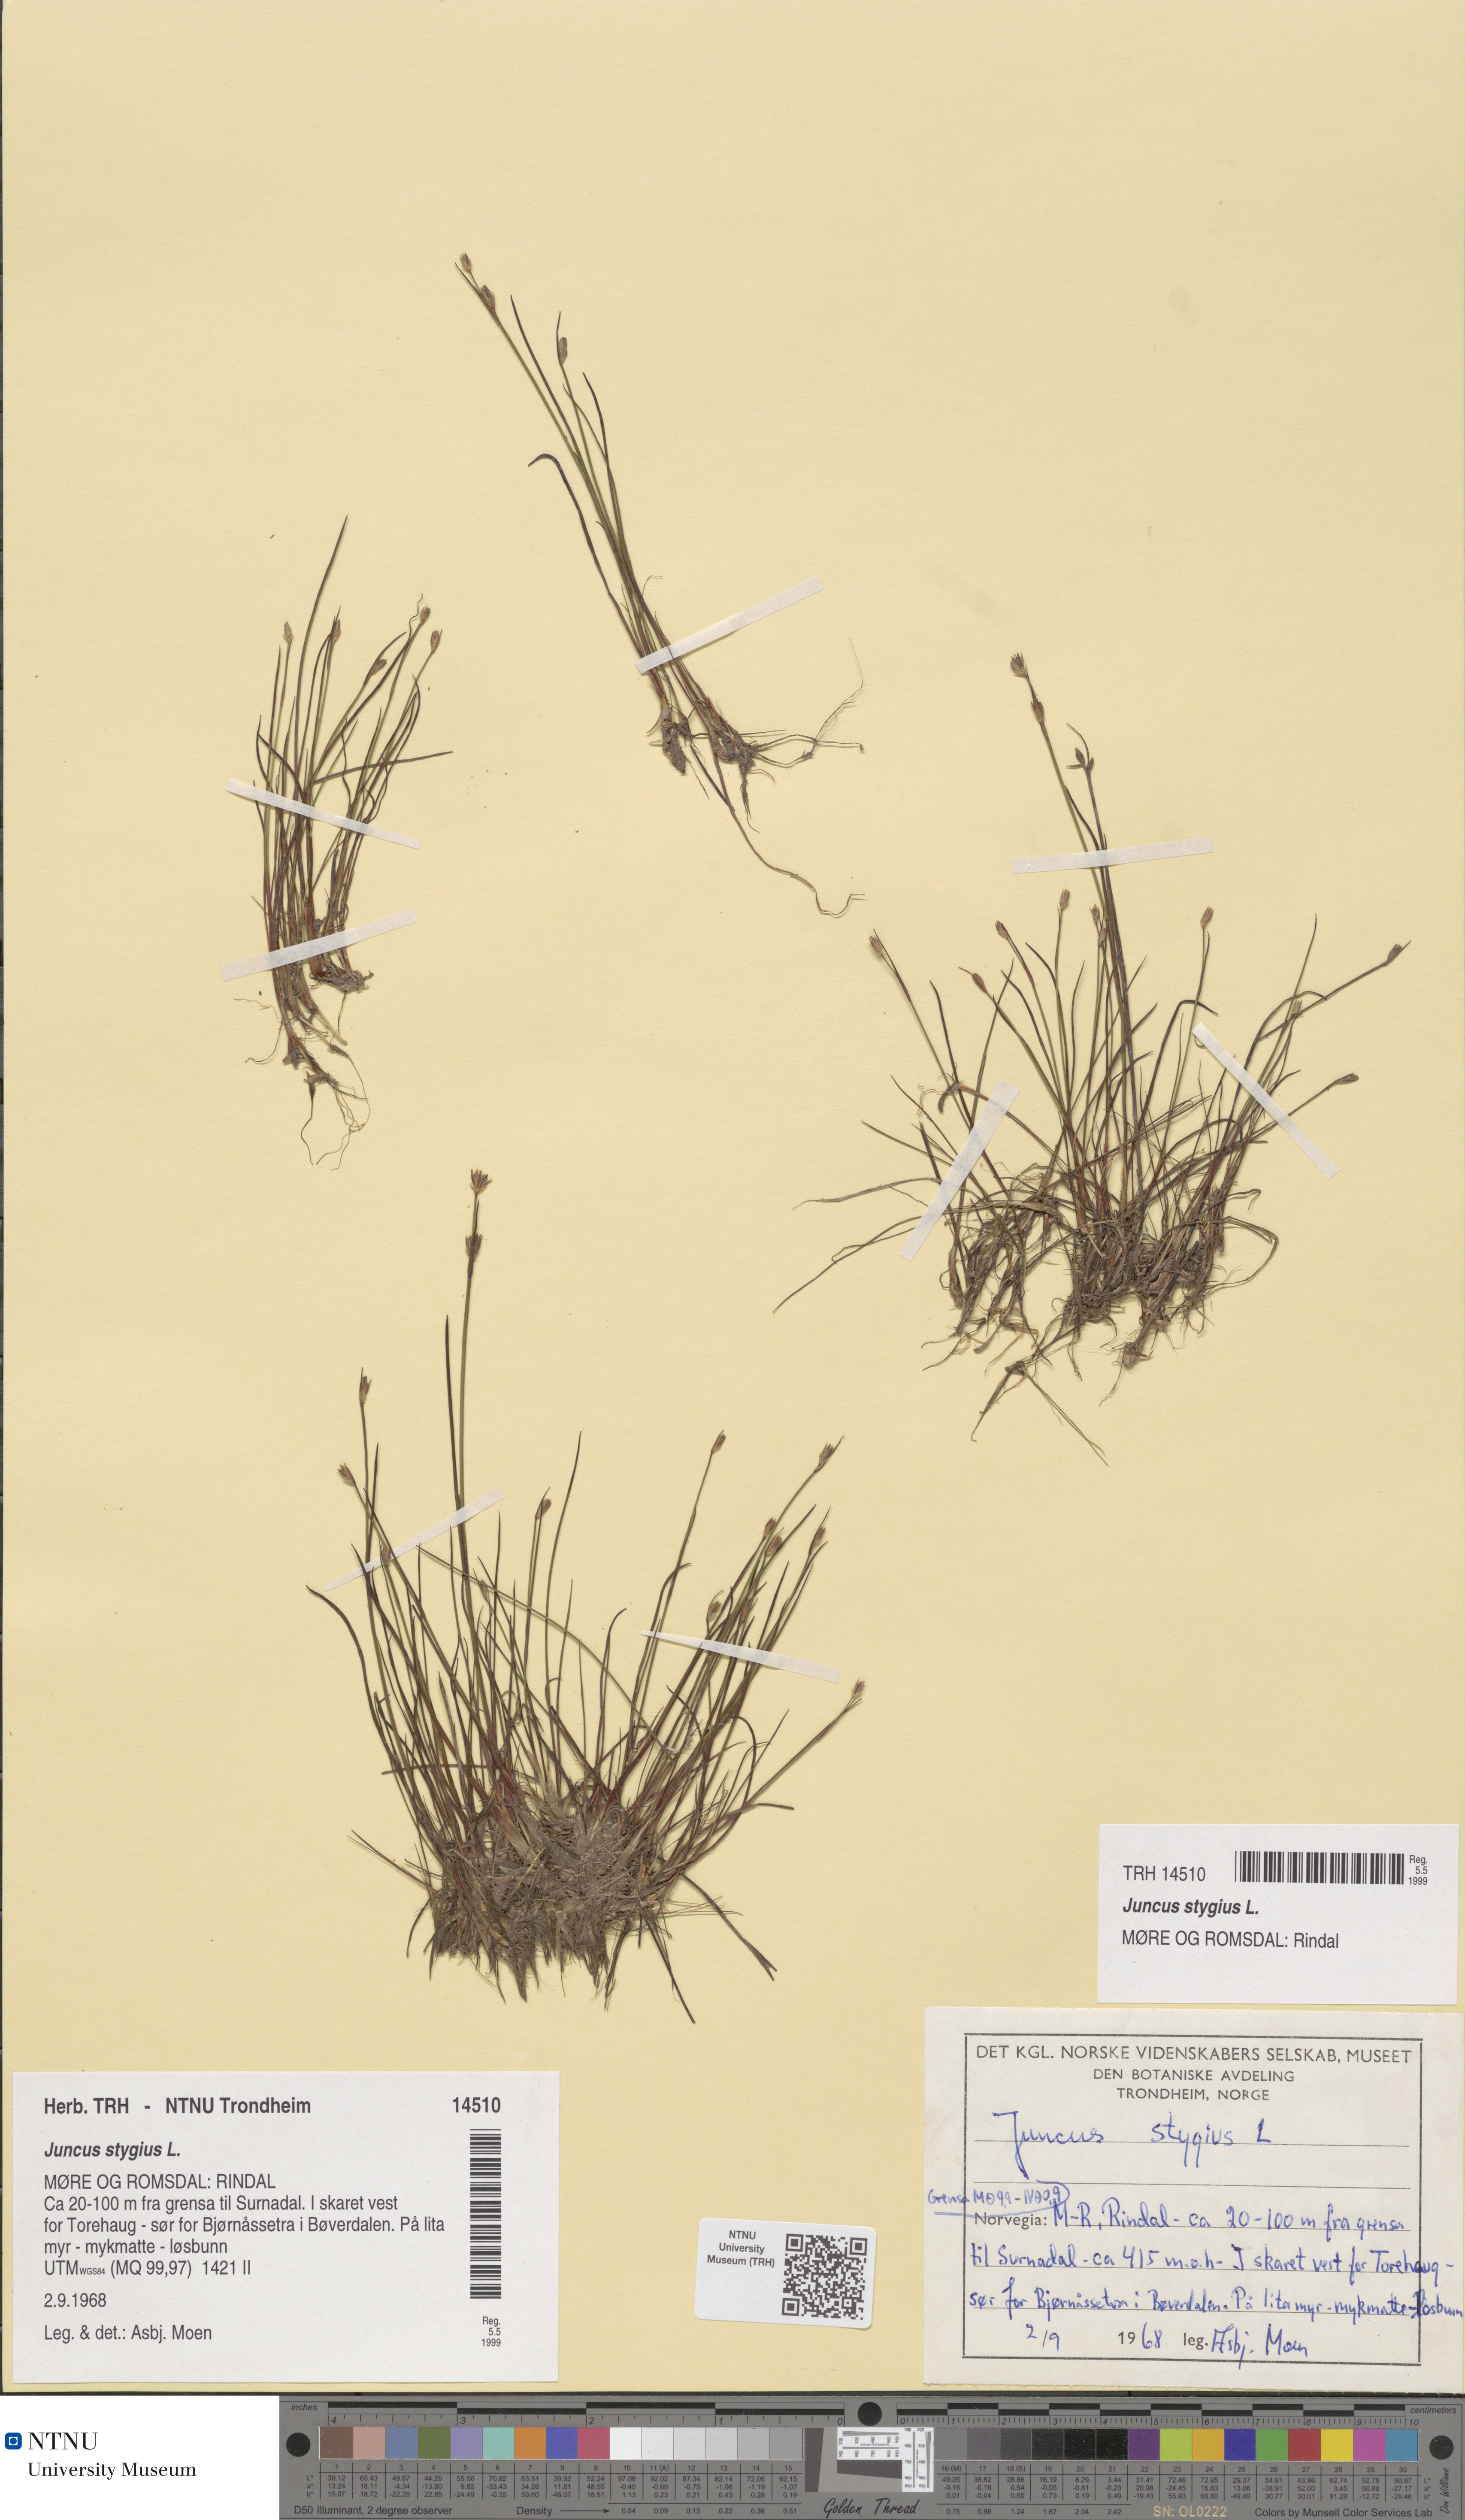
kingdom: Plantae
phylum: Tracheophyta
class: Liliopsida
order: Poales
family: Juncaceae
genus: Juncus
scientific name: Juncus stygius
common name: Bog rush
